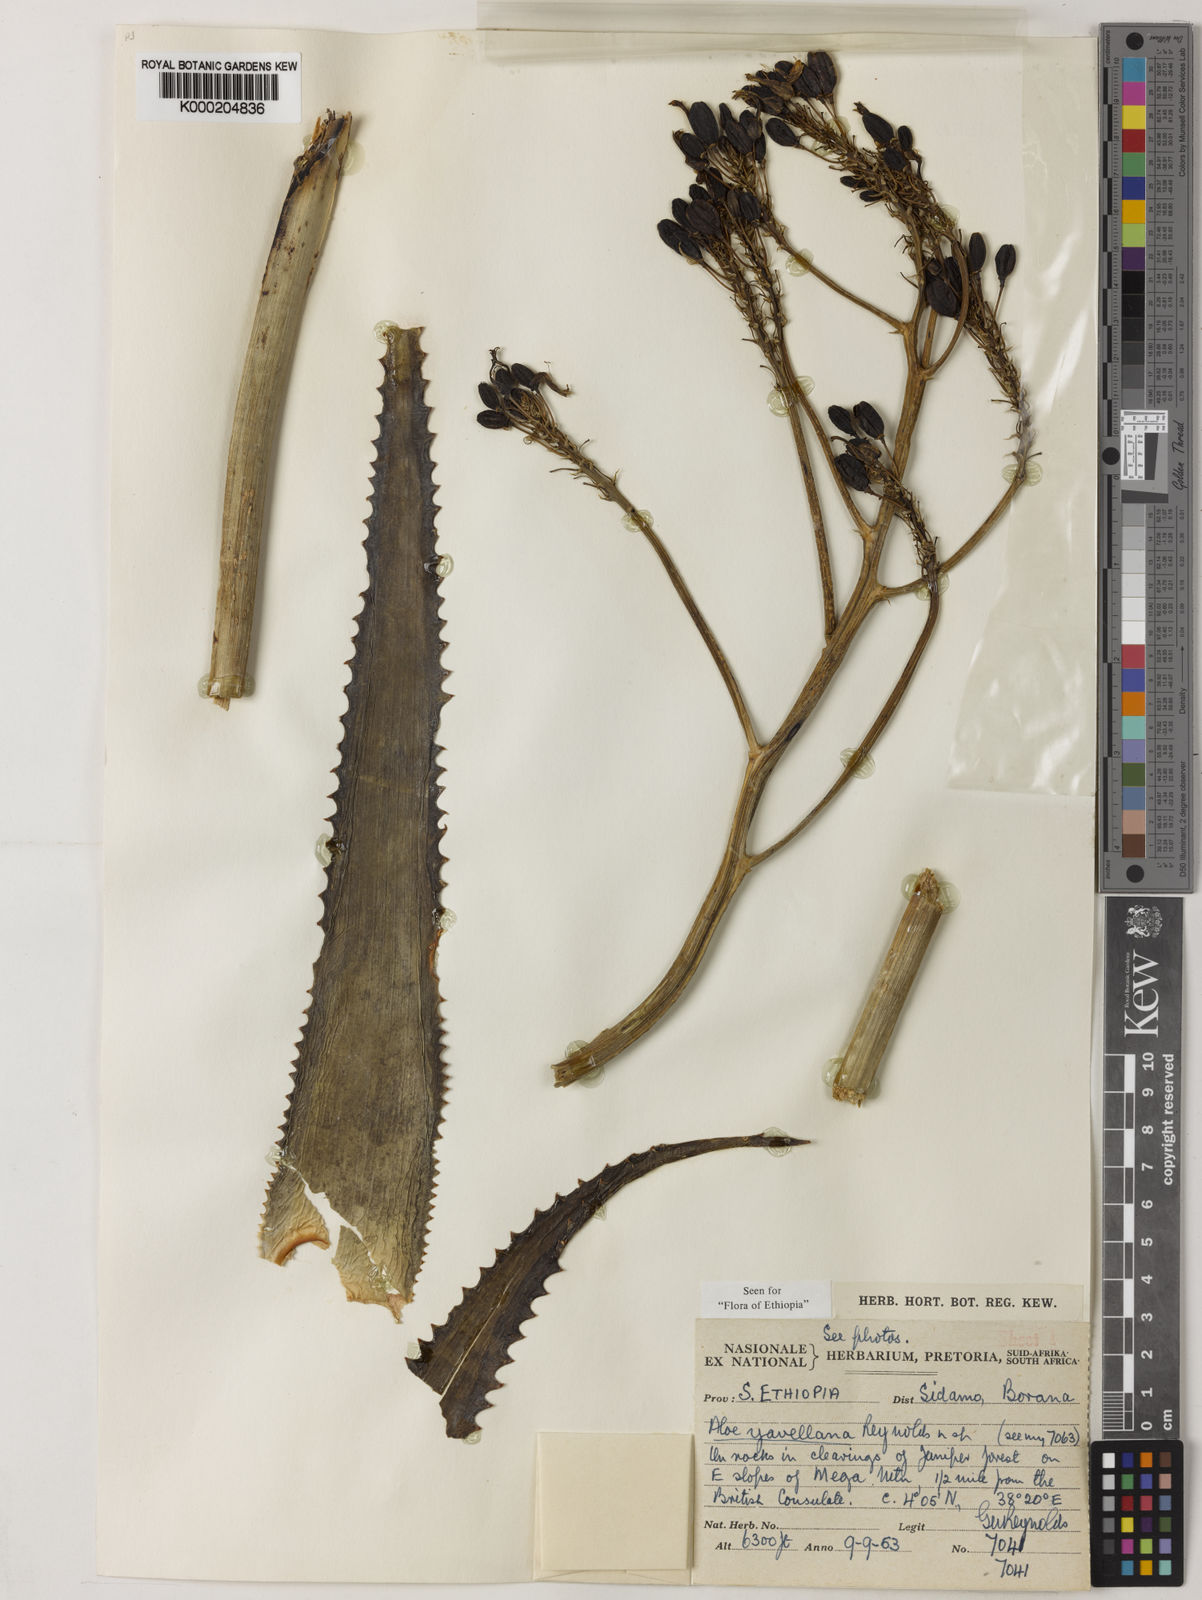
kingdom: Plantae
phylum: Tracheophyta
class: Liliopsida
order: Asparagales
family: Asphodelaceae
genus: Aloe
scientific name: Aloe yavellana
